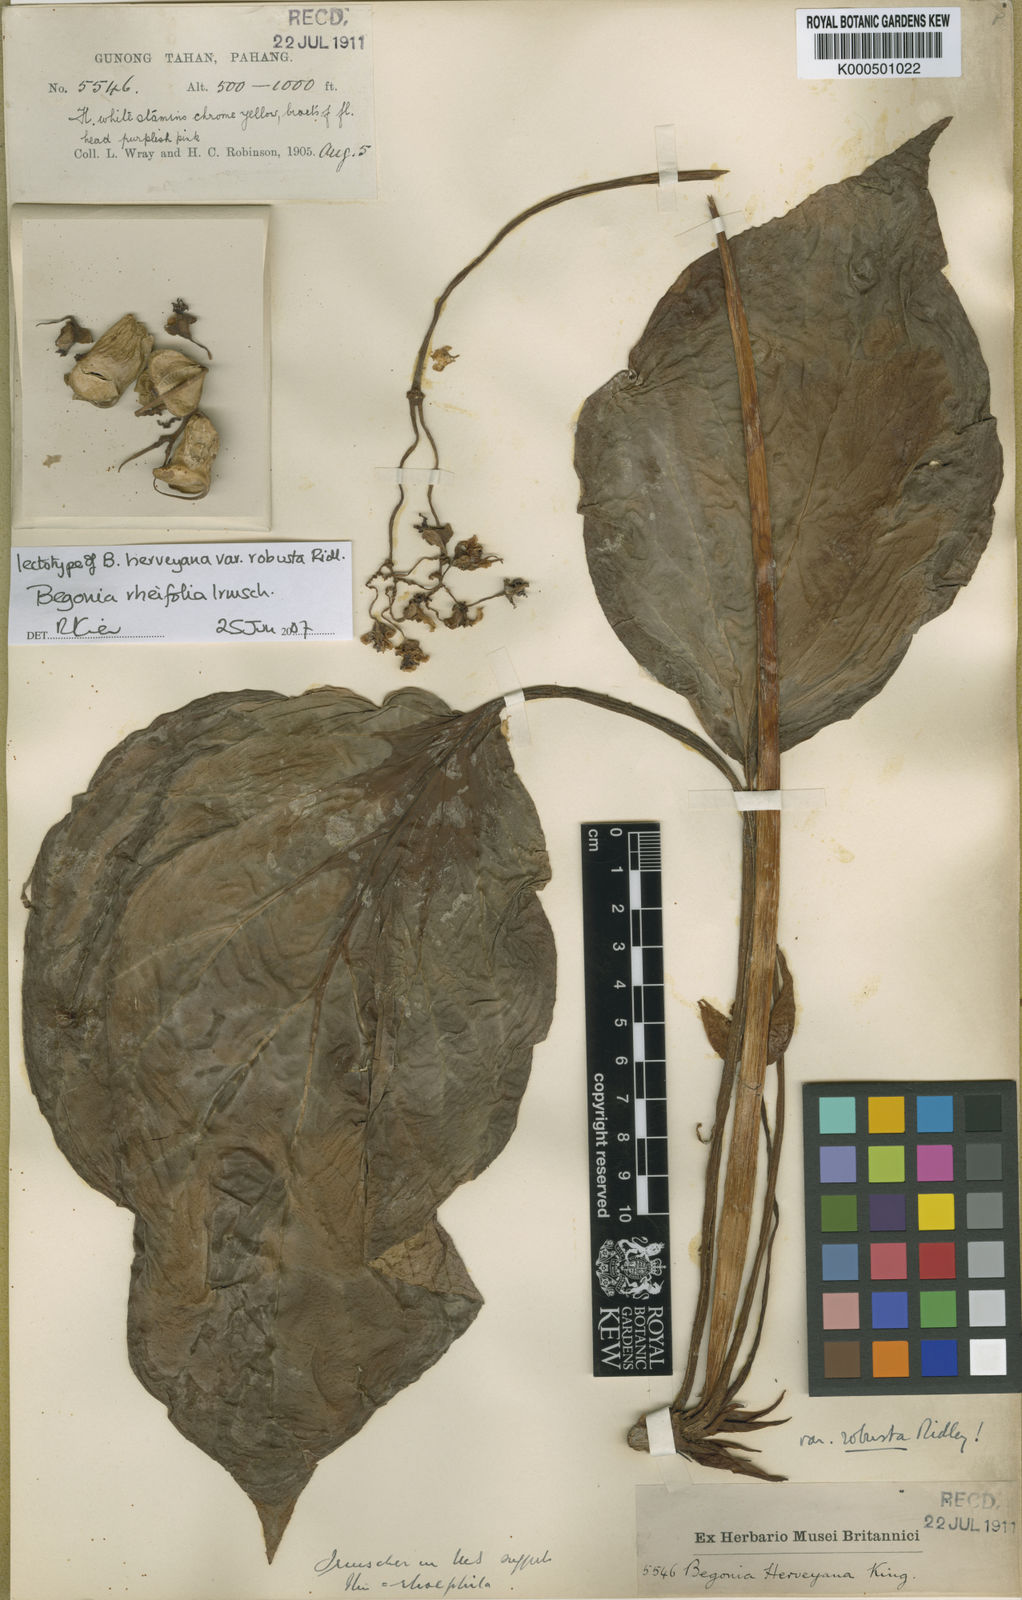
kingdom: Plantae
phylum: Tracheophyta
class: Magnoliopsida
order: Cucurbitales
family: Begoniaceae
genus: Begonia
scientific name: Begonia rheifolia
